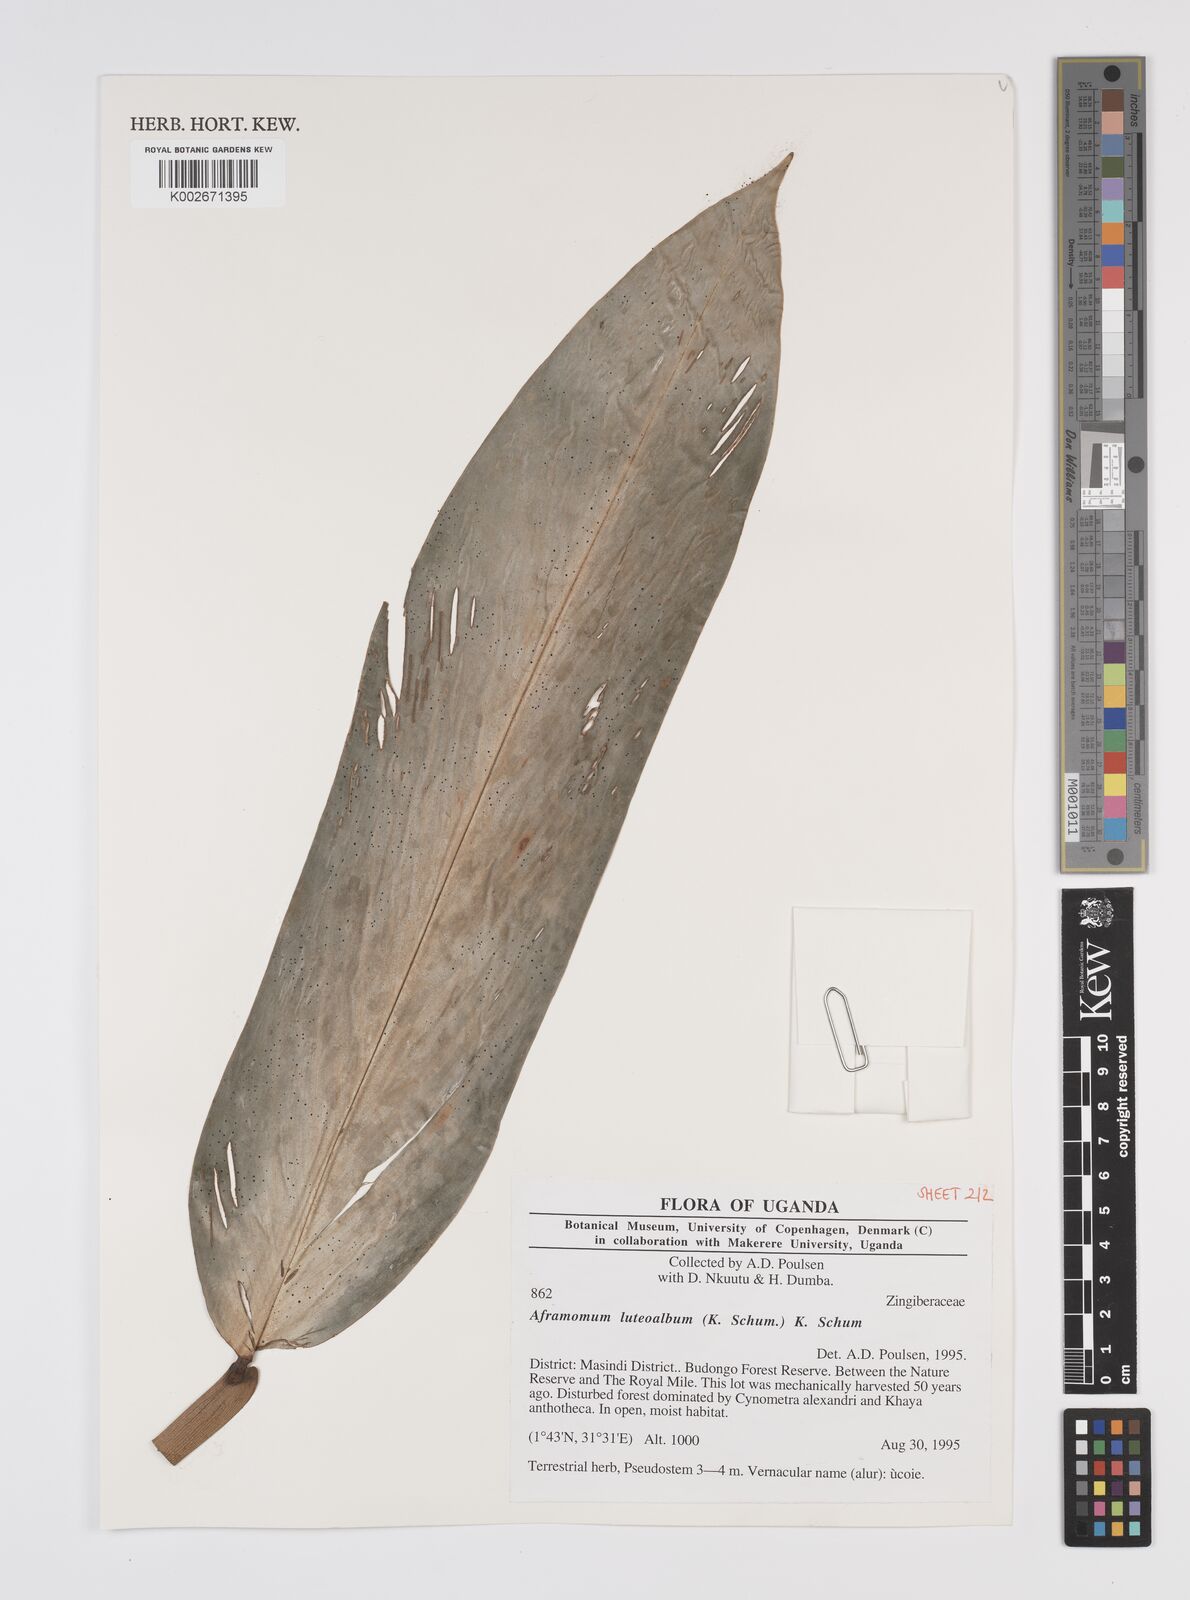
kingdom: Plantae
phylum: Tracheophyta
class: Liliopsida
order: Zingiberales
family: Zingiberaceae
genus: Aframomum
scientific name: Aframomum luteoalbum
